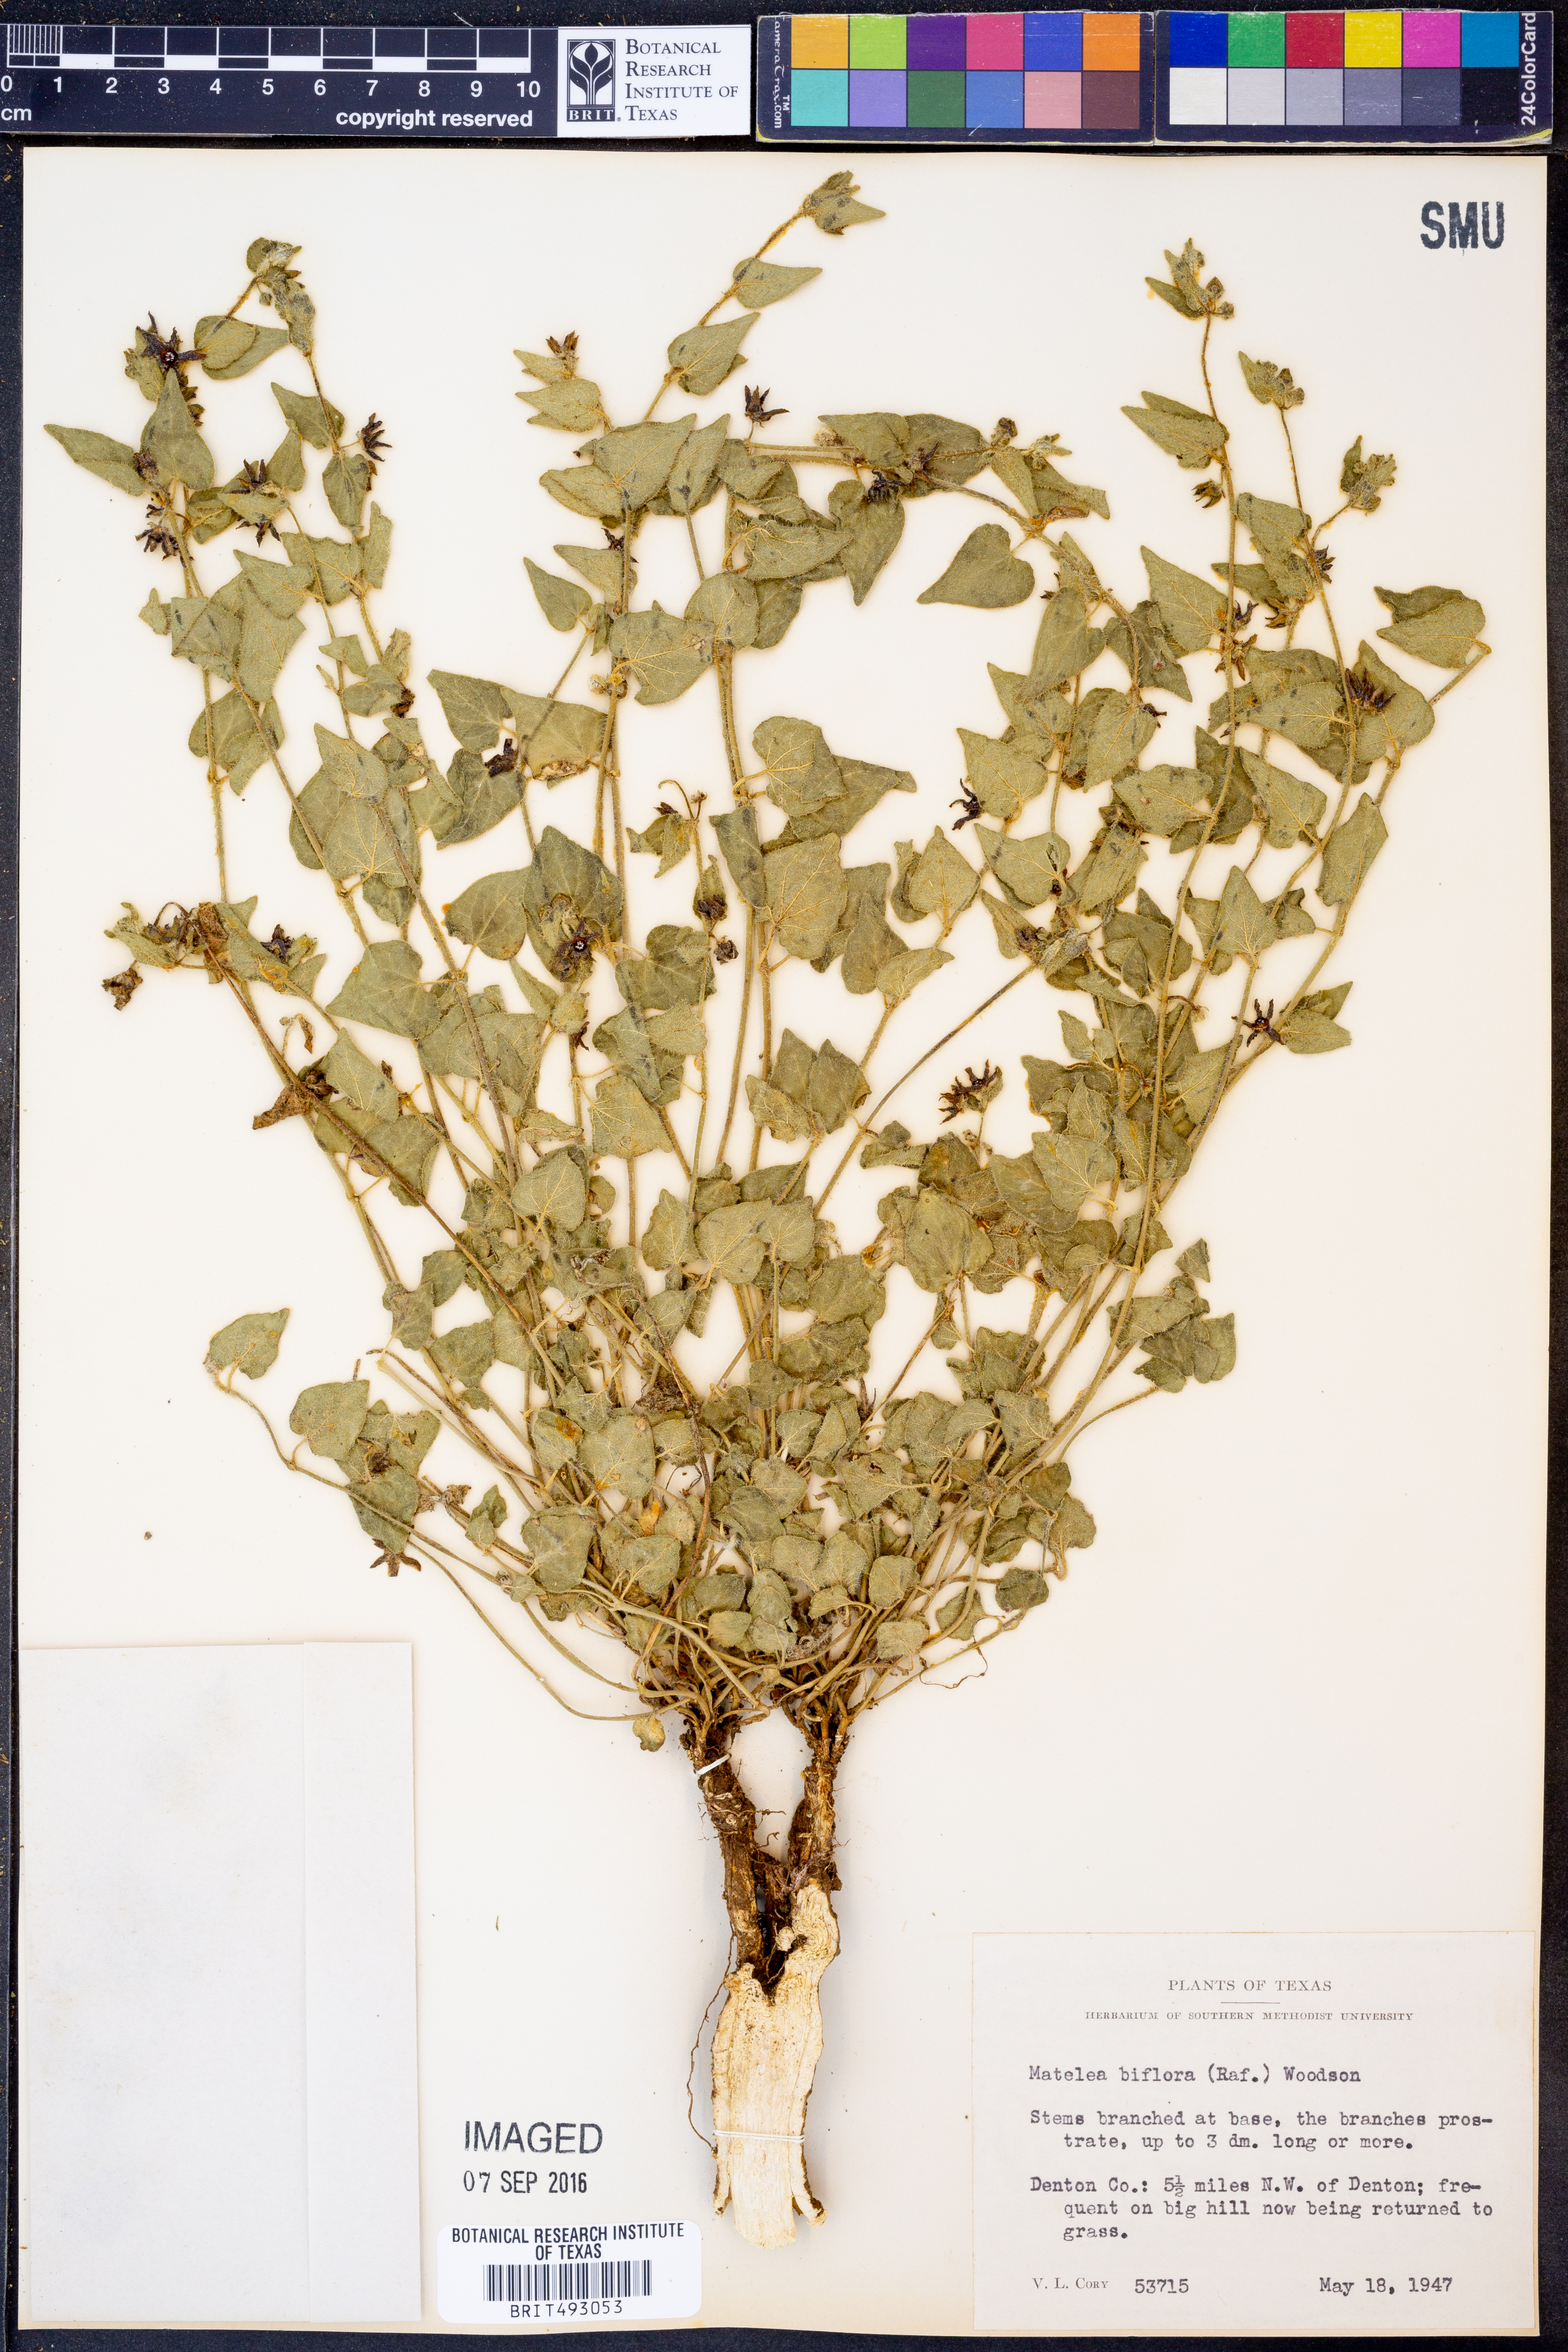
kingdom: Plantae
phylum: Tracheophyta
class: Magnoliopsida
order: Gentianales
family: Apocynaceae
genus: Chthamalia
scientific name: Chthamalia biflora
